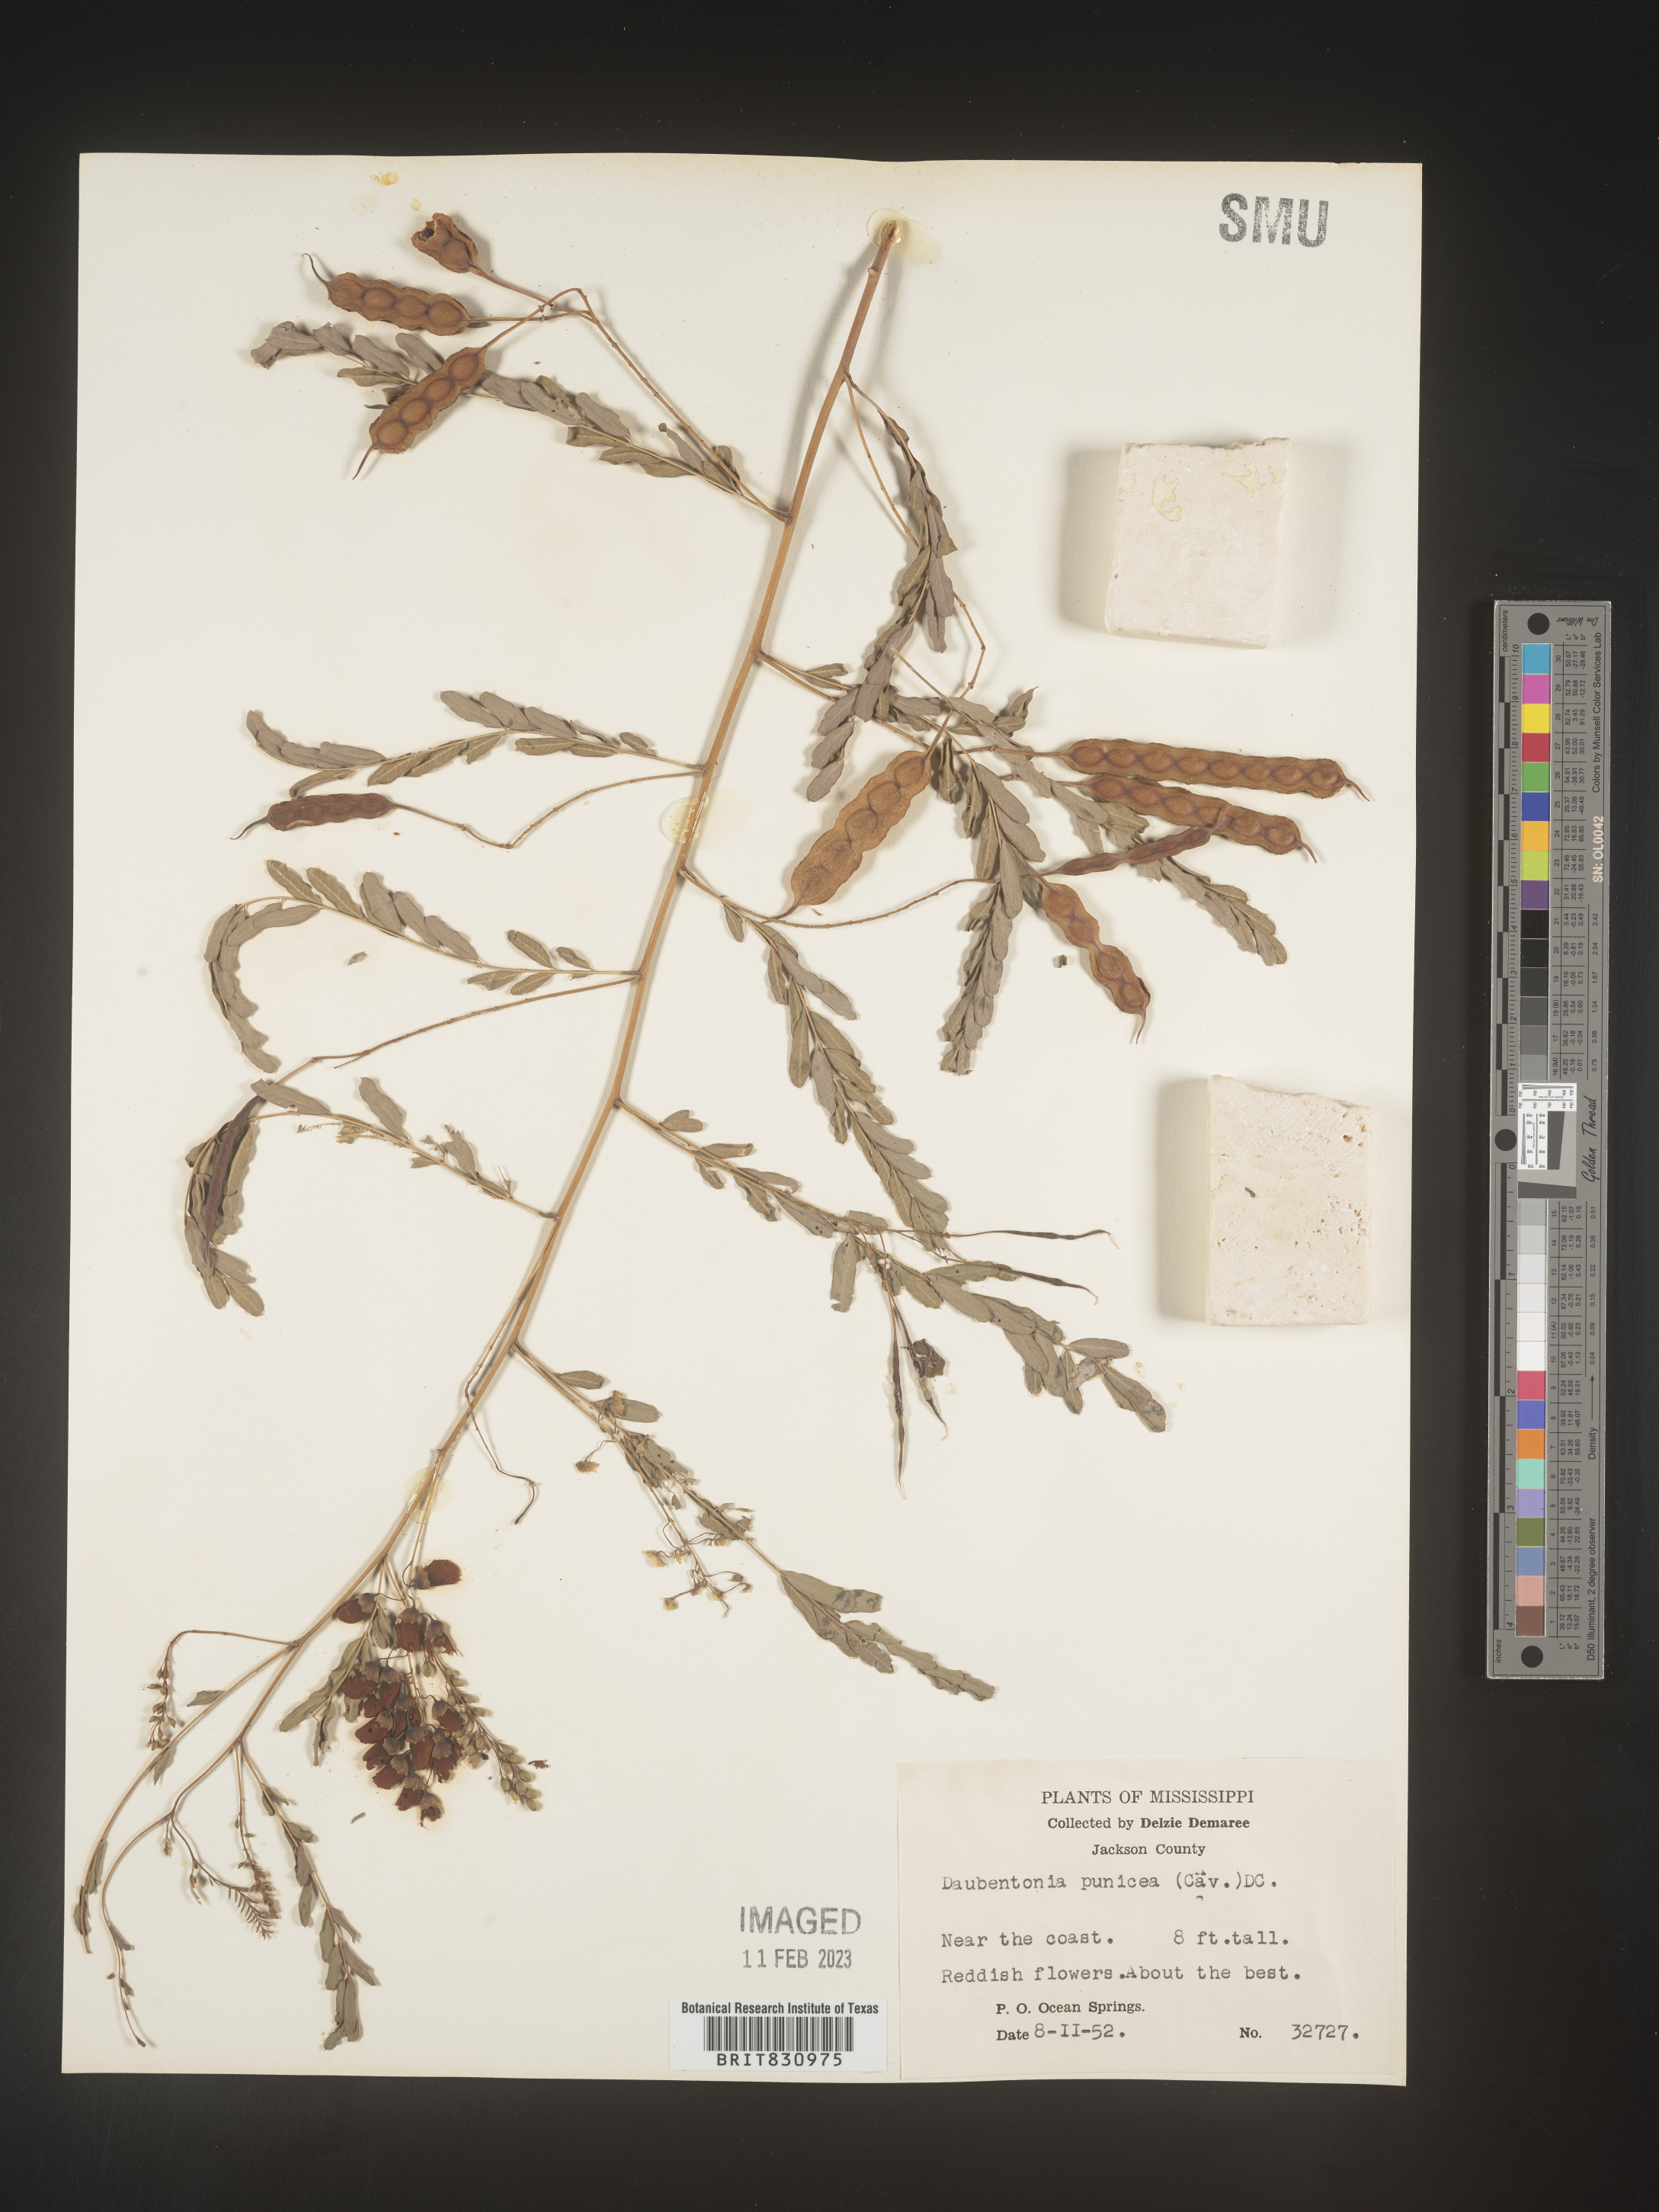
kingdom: Plantae
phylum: Tracheophyta
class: Magnoliopsida
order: Fabales
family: Fabaceae
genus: Sesbania
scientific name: Sesbania punicea
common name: Rattlebox
